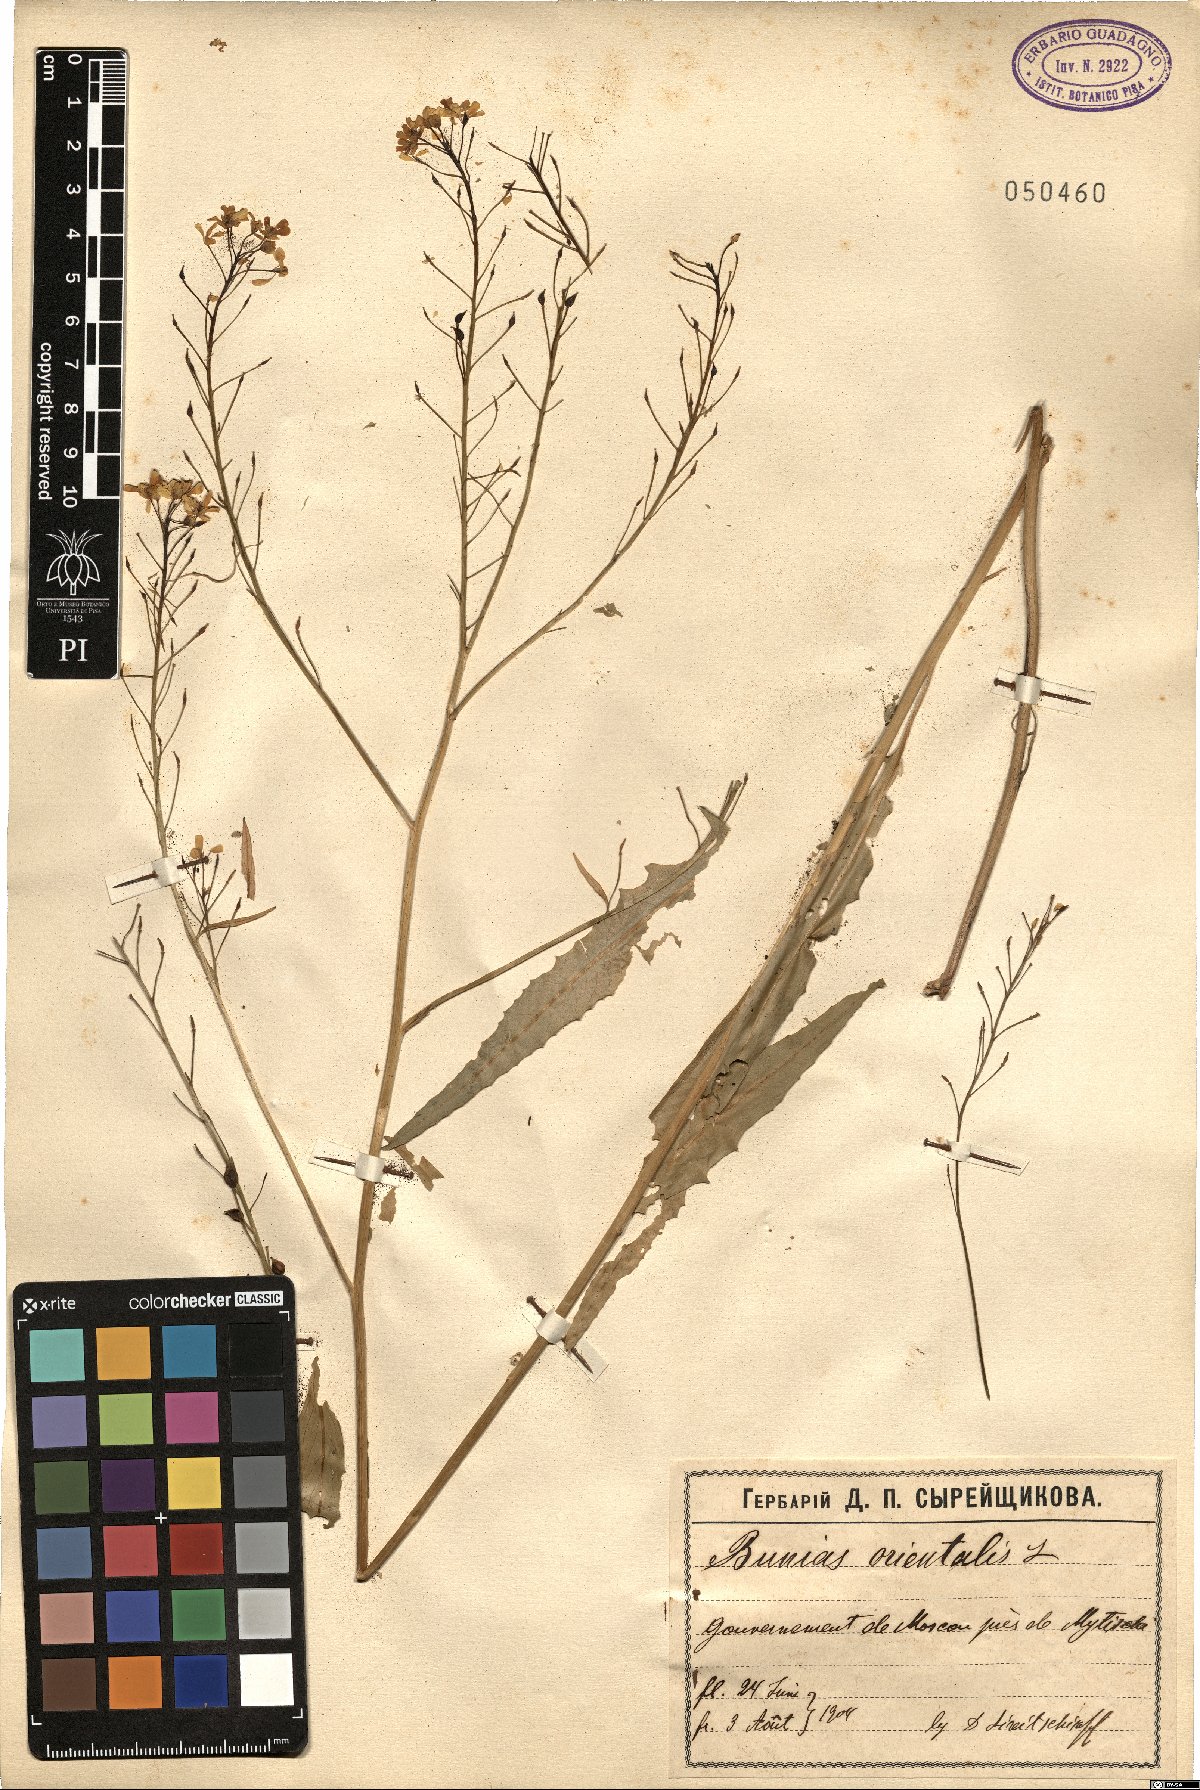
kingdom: Plantae
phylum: Tracheophyta
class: Magnoliopsida
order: Brassicales
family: Brassicaceae
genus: Bunias
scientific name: Bunias orientalis
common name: Warty-cabbage
